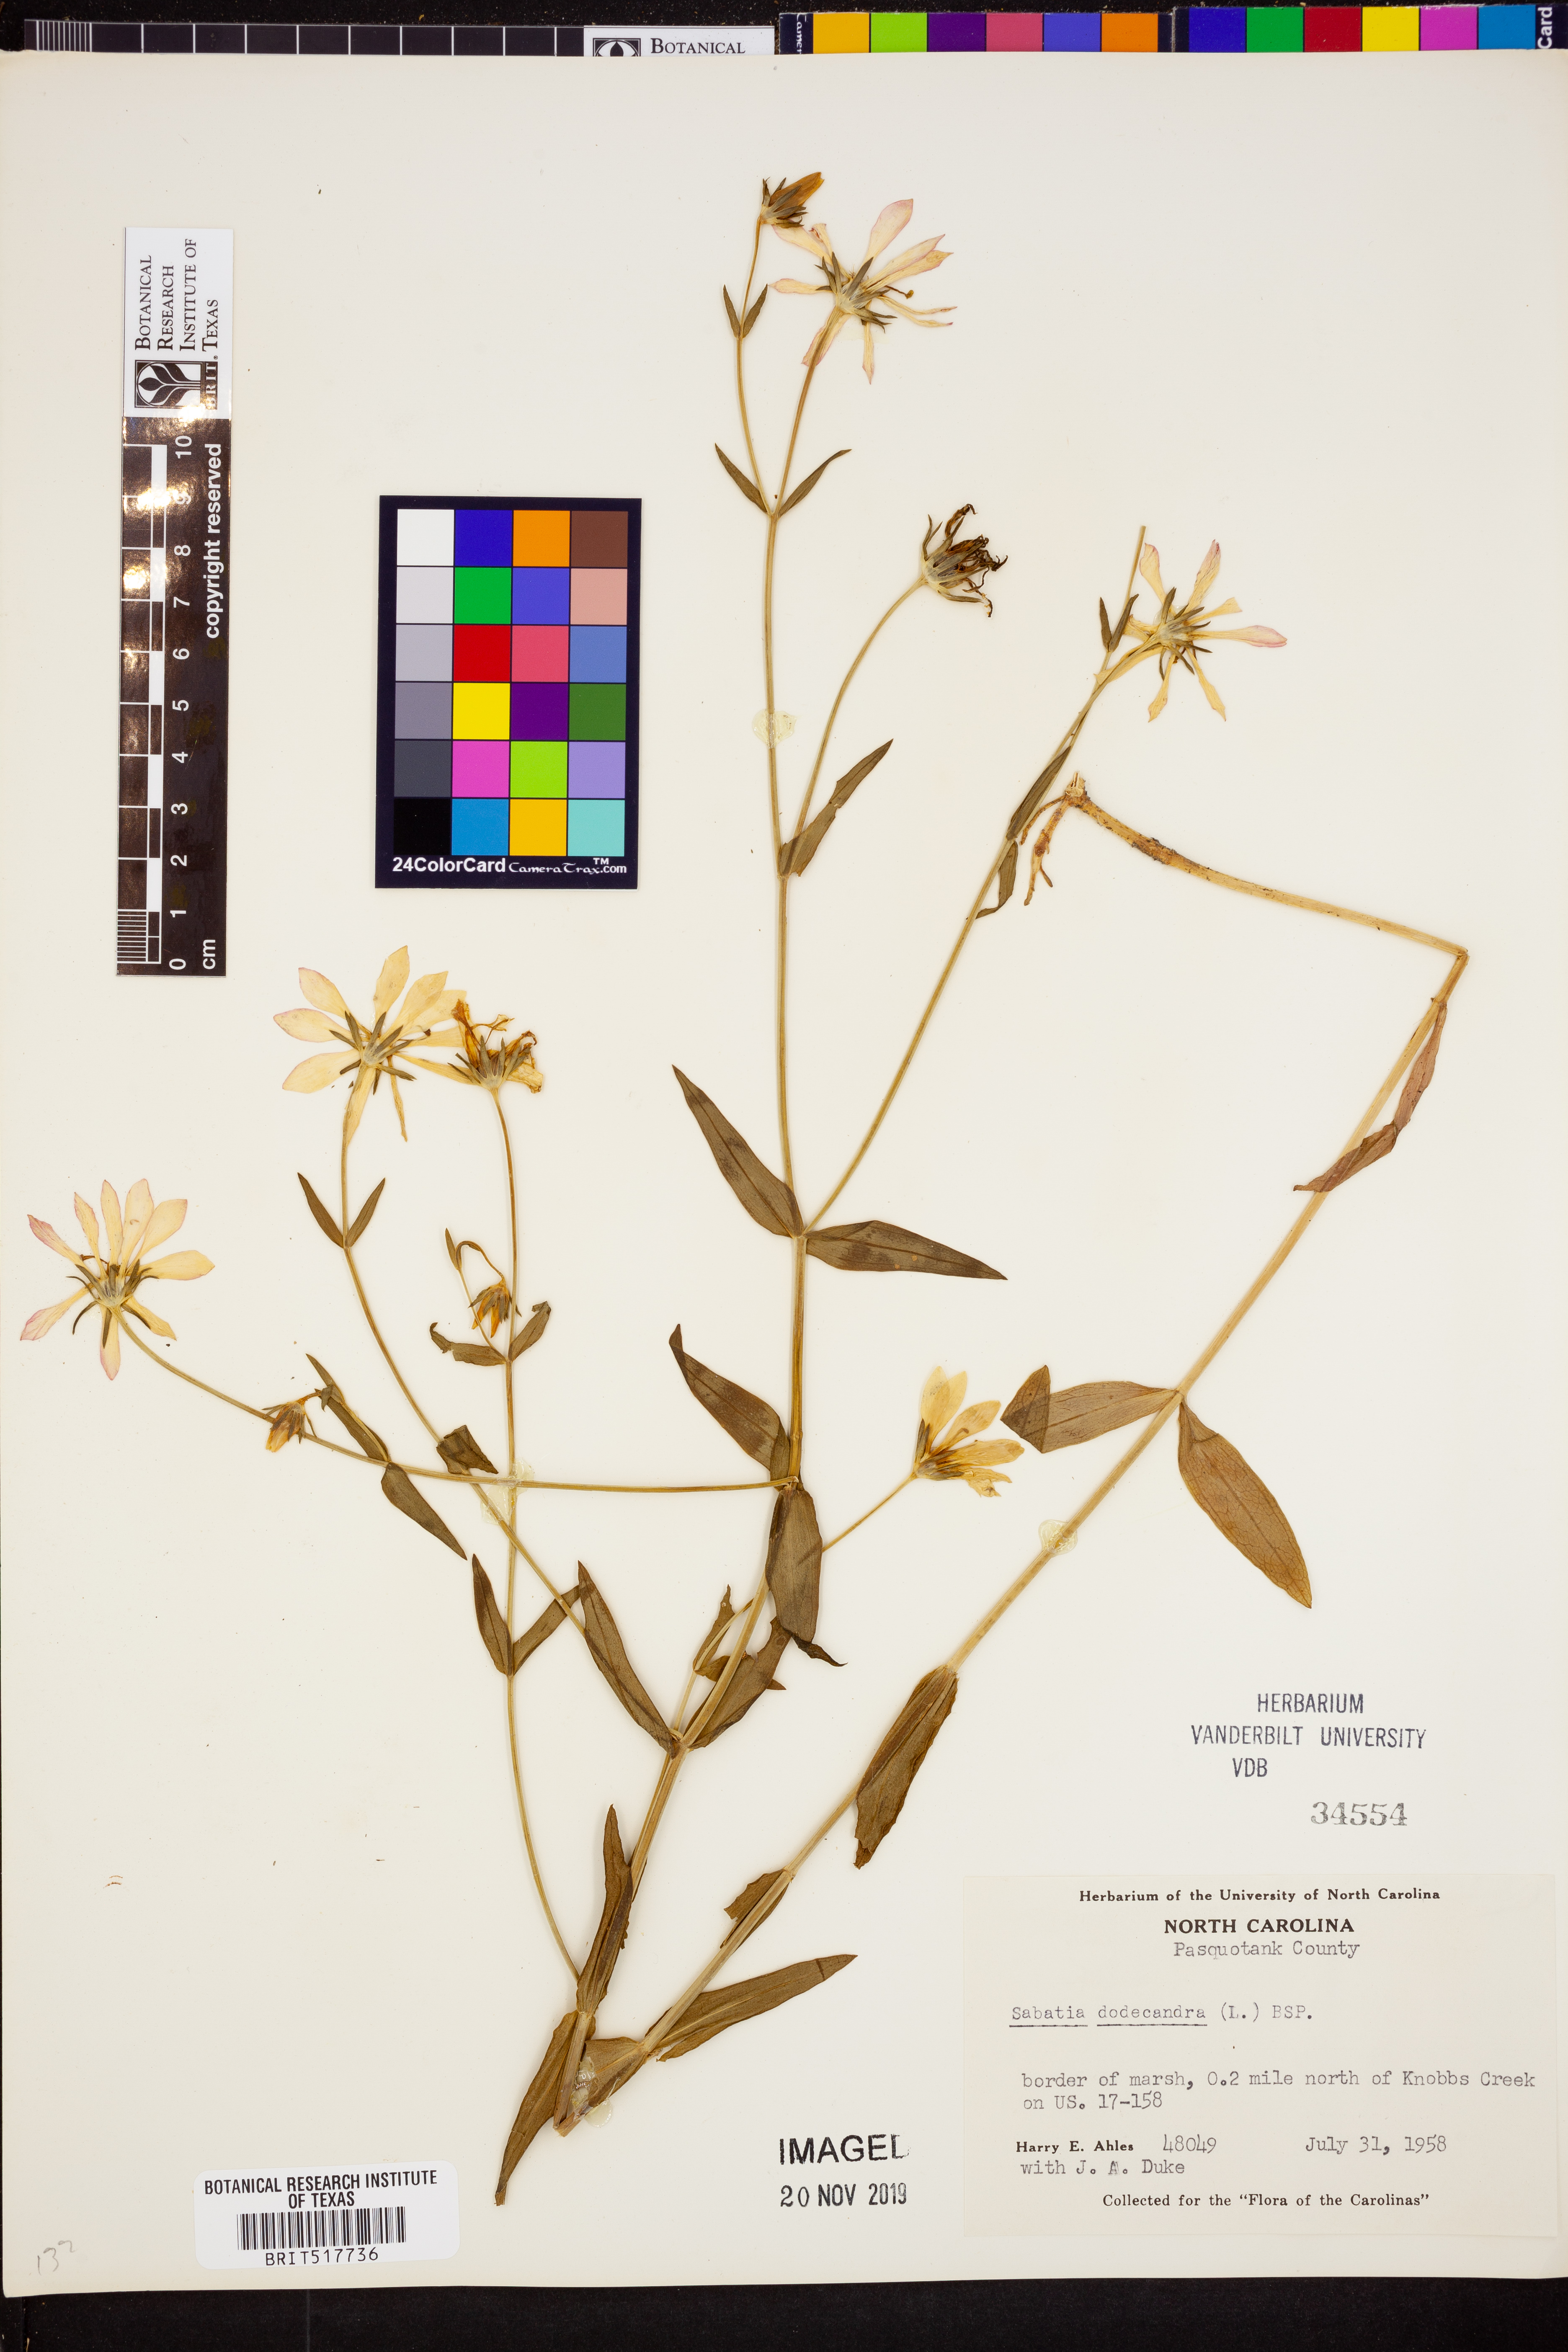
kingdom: Plantae
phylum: Tracheophyta
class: Magnoliopsida
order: Gentianales
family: Gentianaceae
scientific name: Gentianaceae
